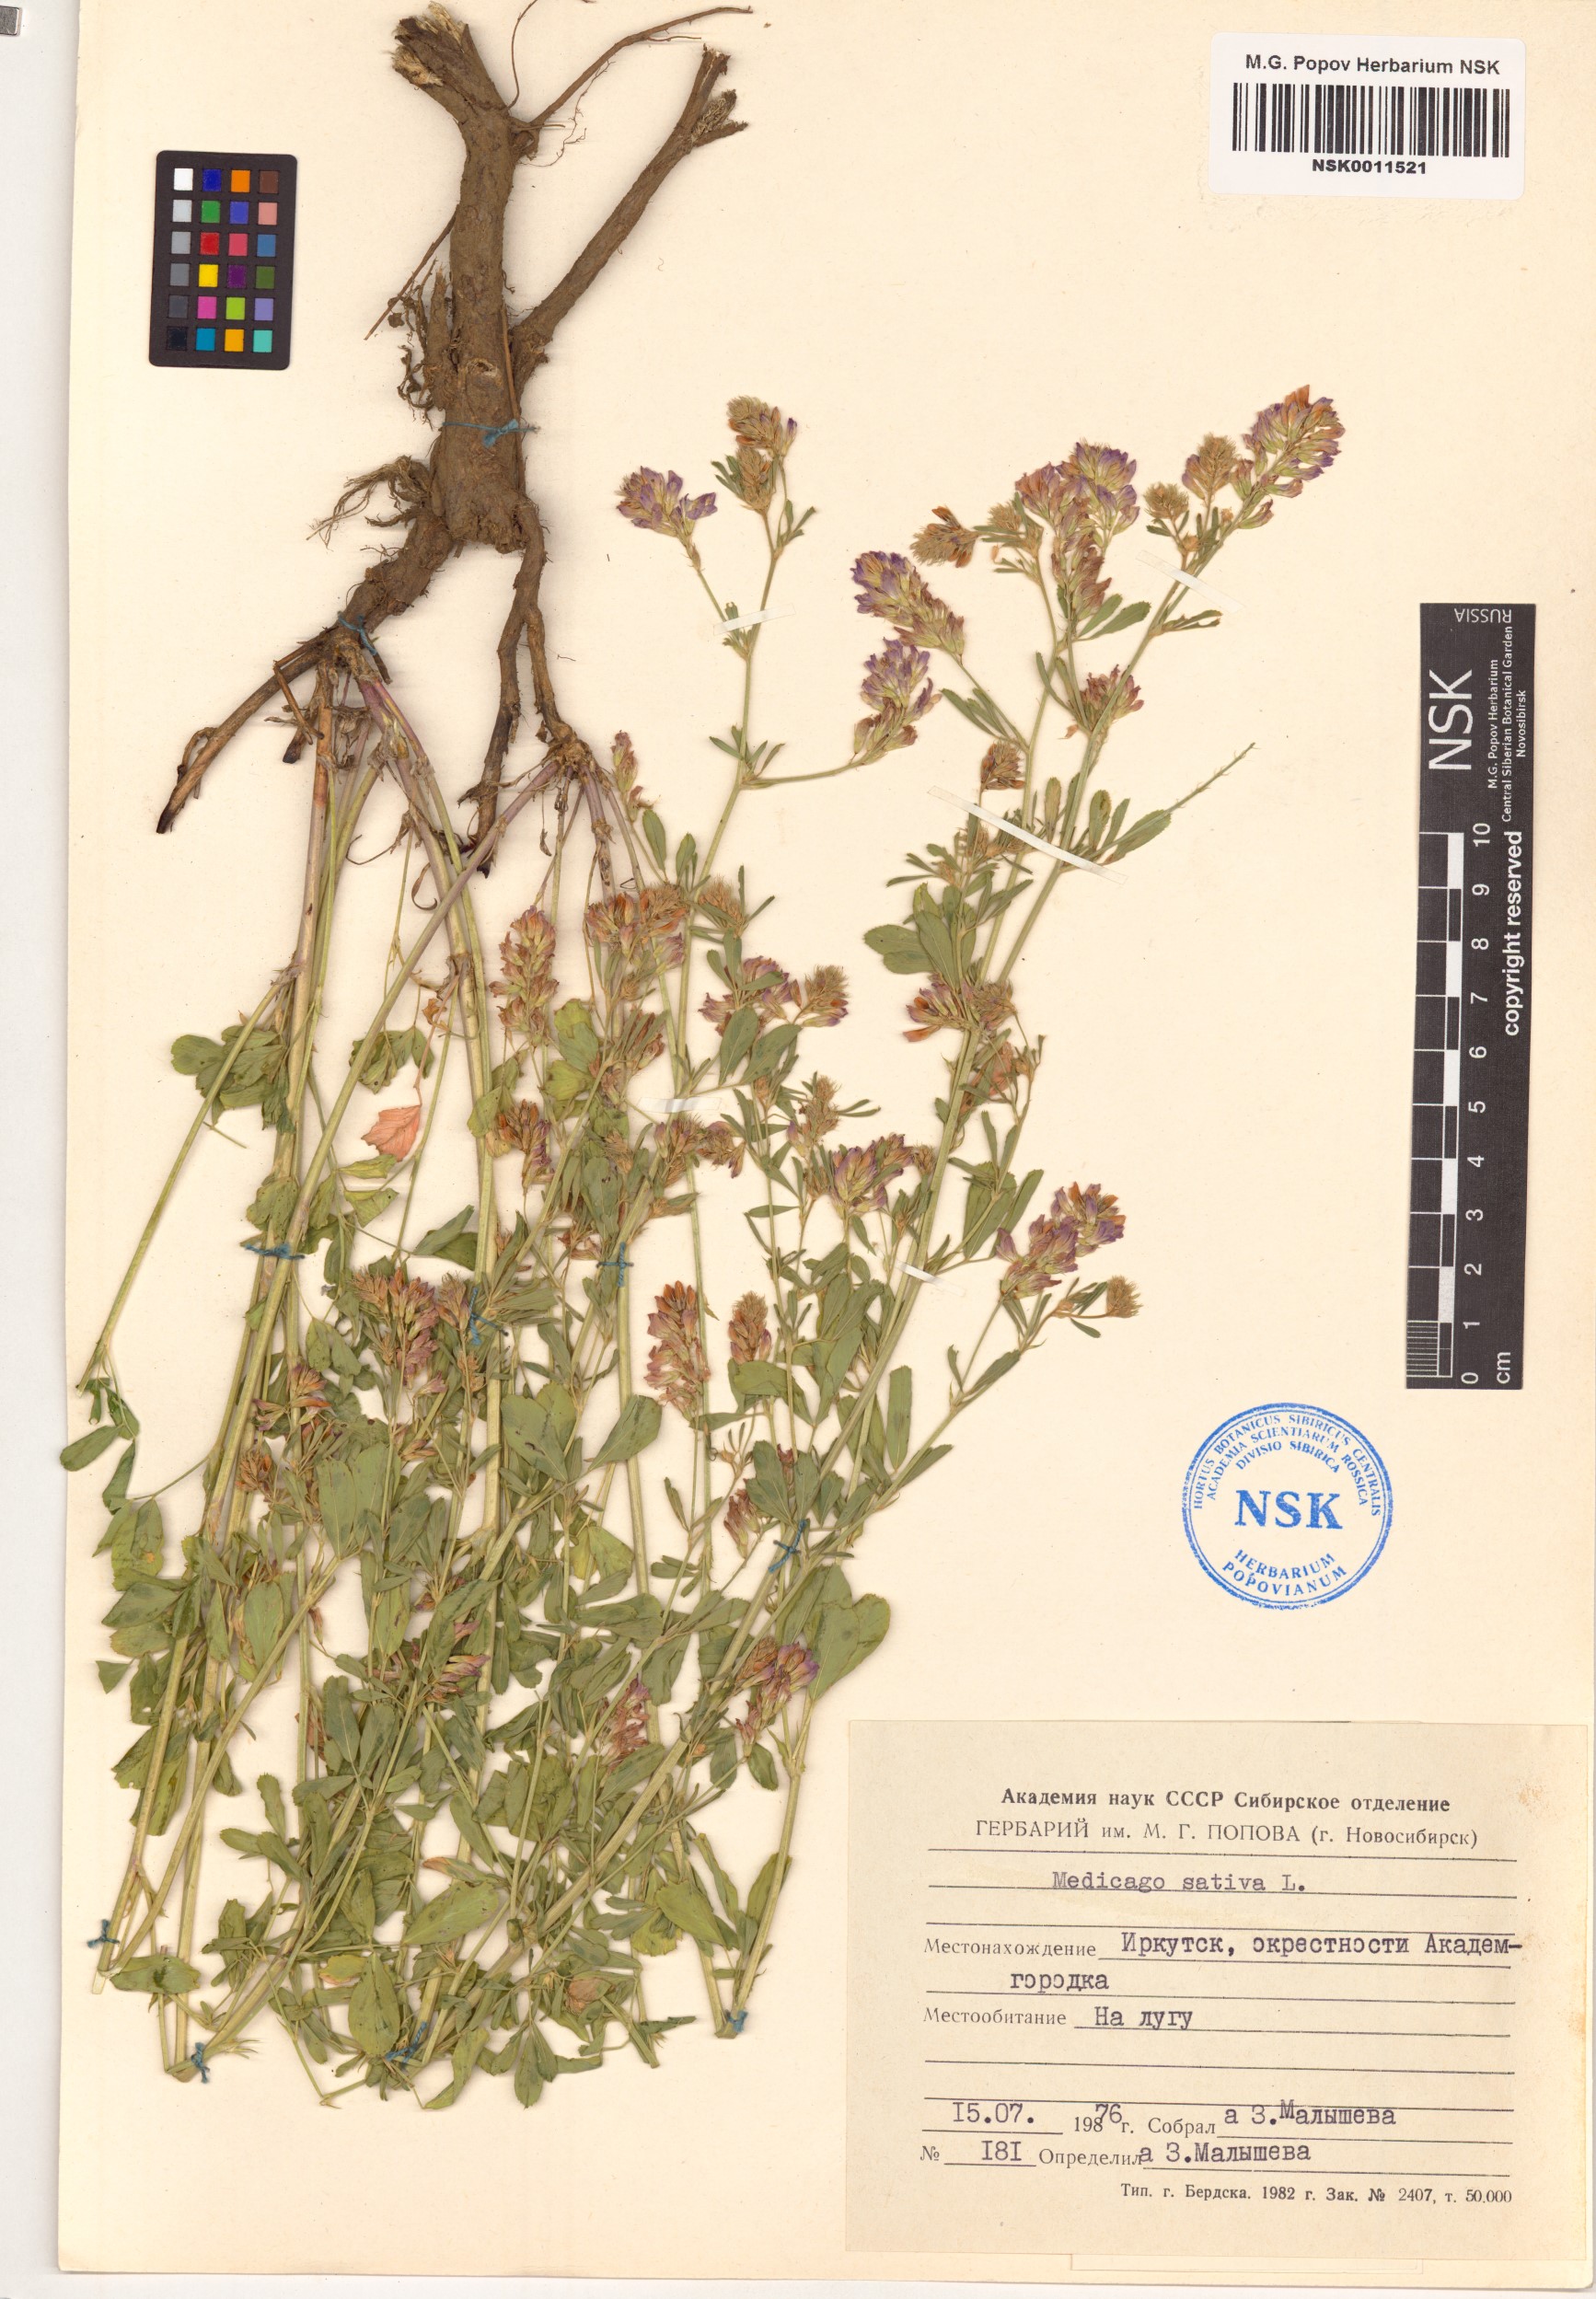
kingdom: Plantae
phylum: Tracheophyta
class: Magnoliopsida
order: Fabales
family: Fabaceae
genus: Medicago
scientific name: Medicago sativa
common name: Alfalfa
